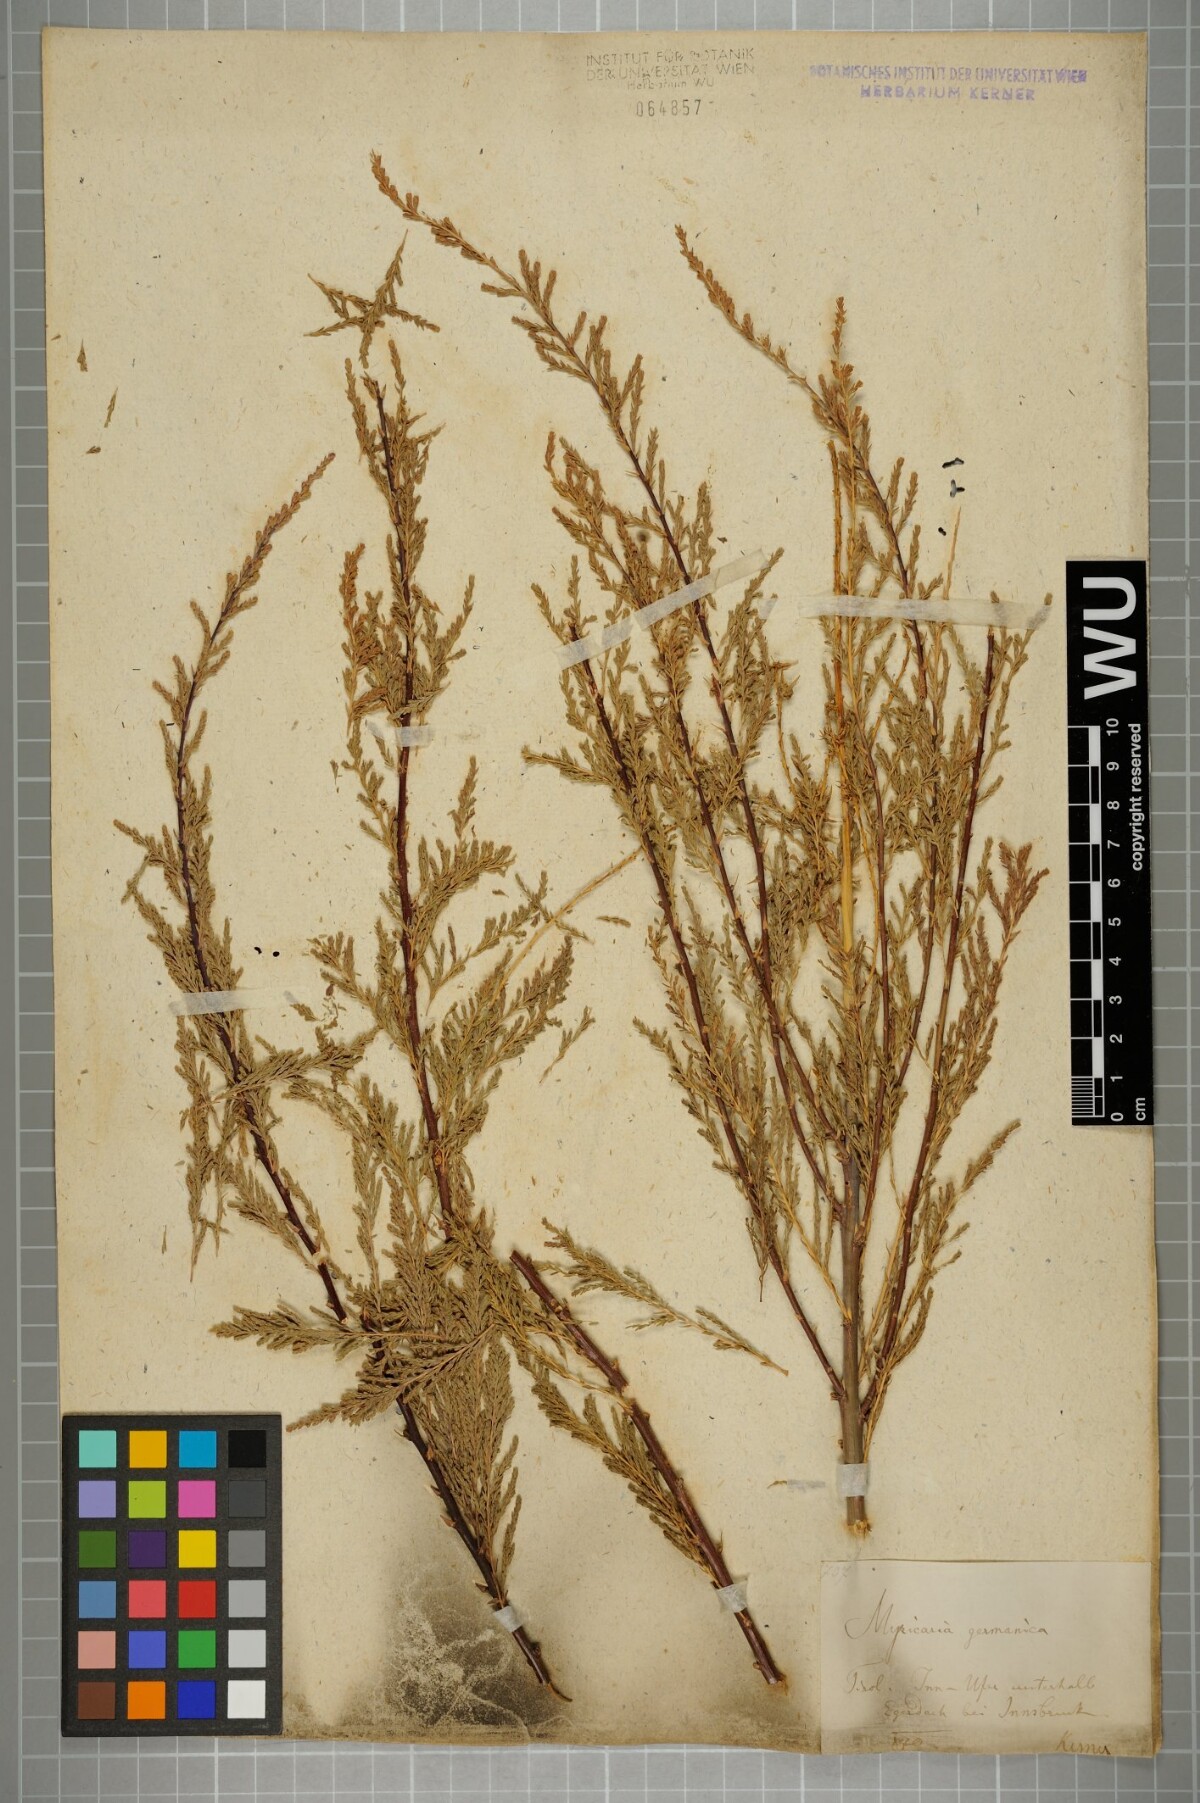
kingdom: Plantae
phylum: Tracheophyta
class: Magnoliopsida
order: Caryophyllales
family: Tamaricaceae
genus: Myricaria
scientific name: Myricaria germanica
